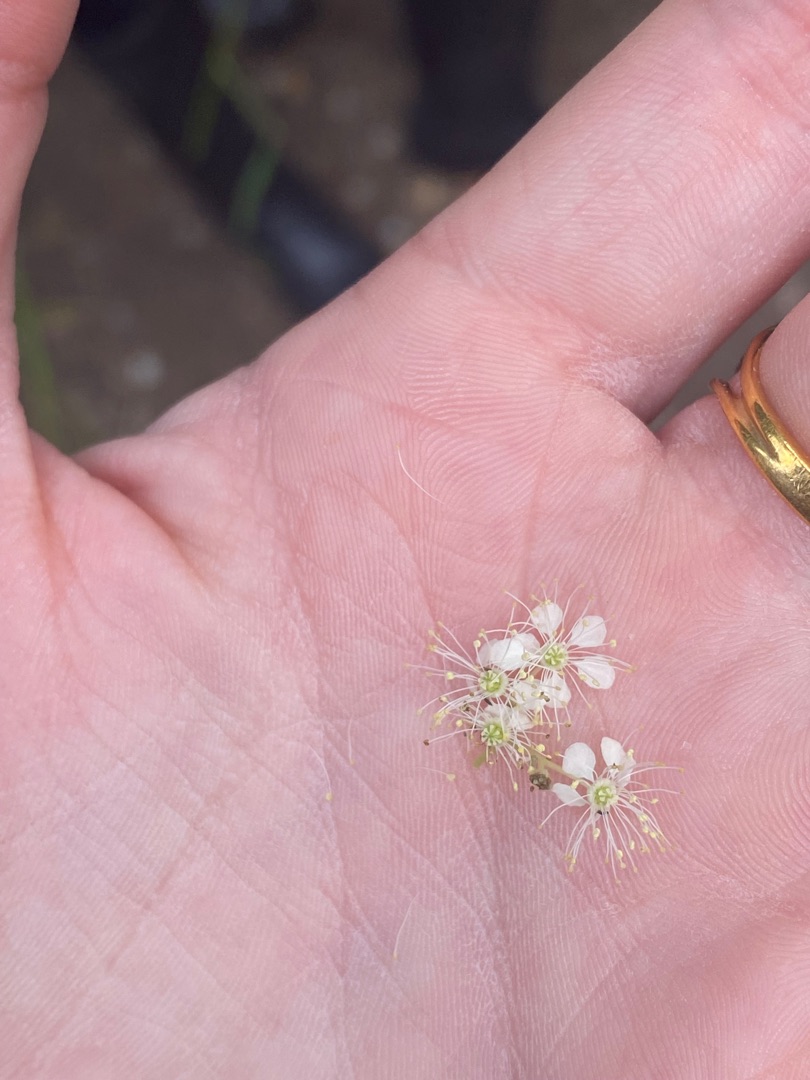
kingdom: Plantae
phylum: Tracheophyta
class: Magnoliopsida
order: Rosales
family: Rosaceae
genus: Filipendula
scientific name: Filipendula ulmaria
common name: Almindelig mjødurt
